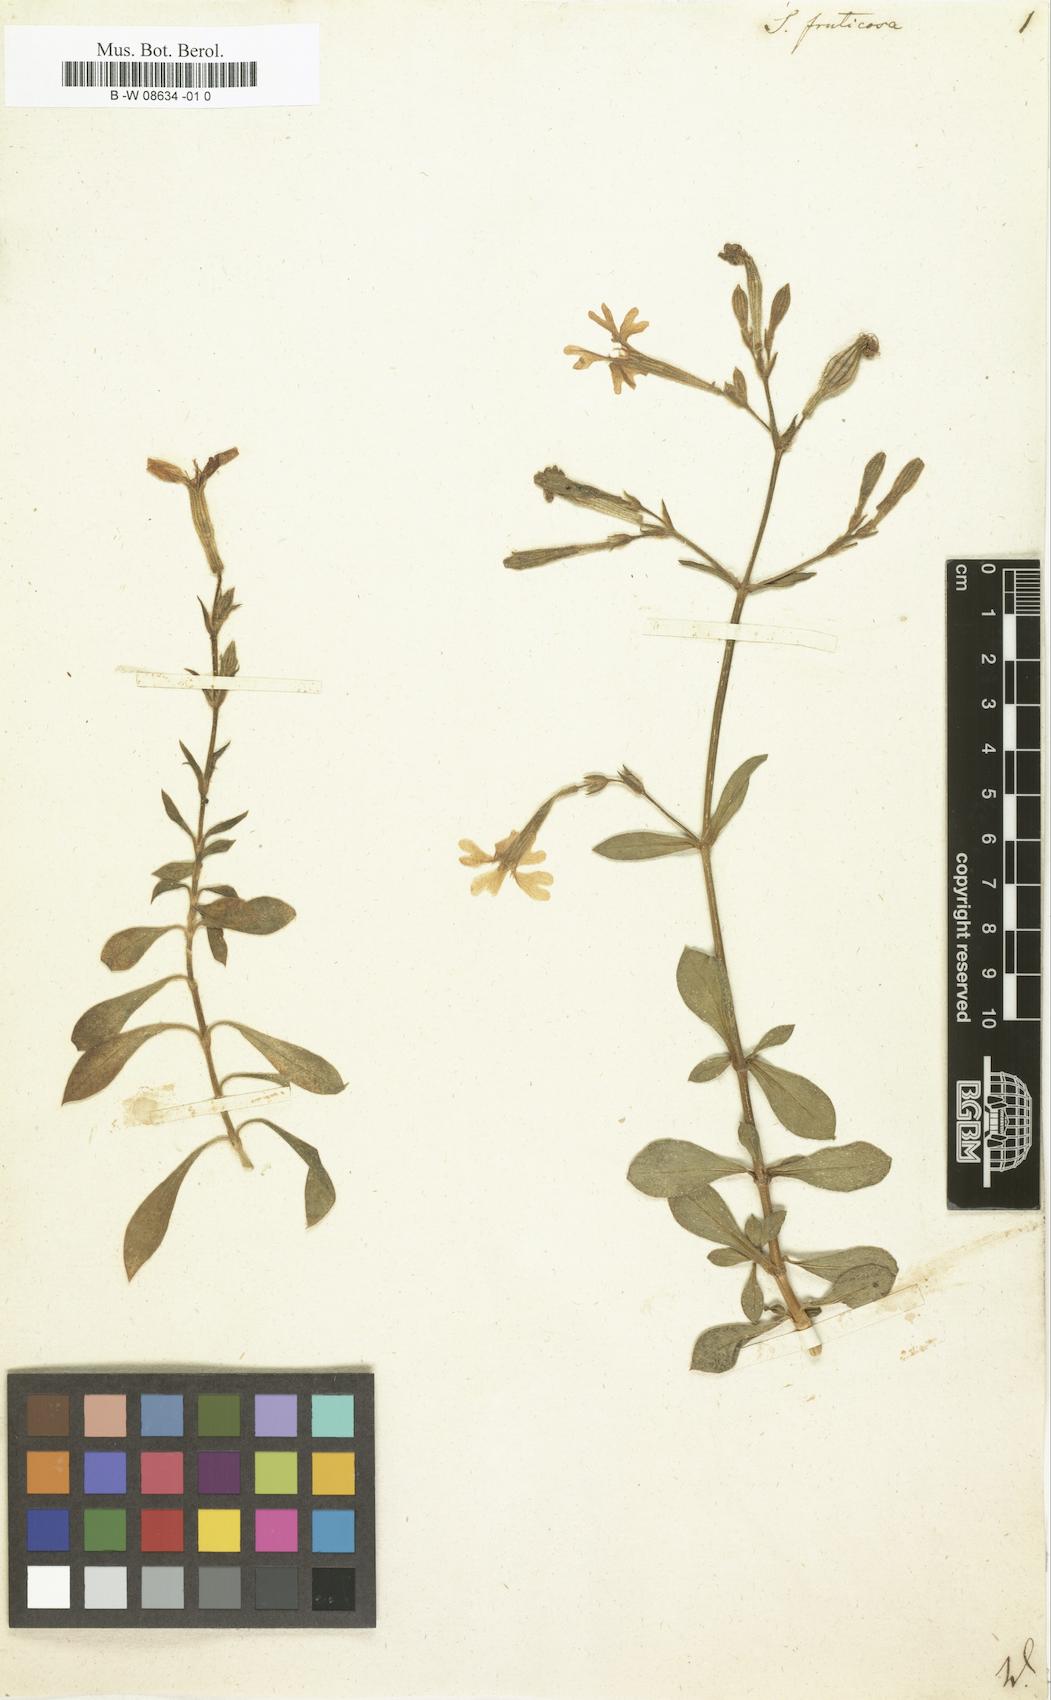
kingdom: Plantae
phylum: Tracheophyta
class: Magnoliopsida
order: Caryophyllales
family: Caryophyllaceae
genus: Silene
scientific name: Silene fruticosa
